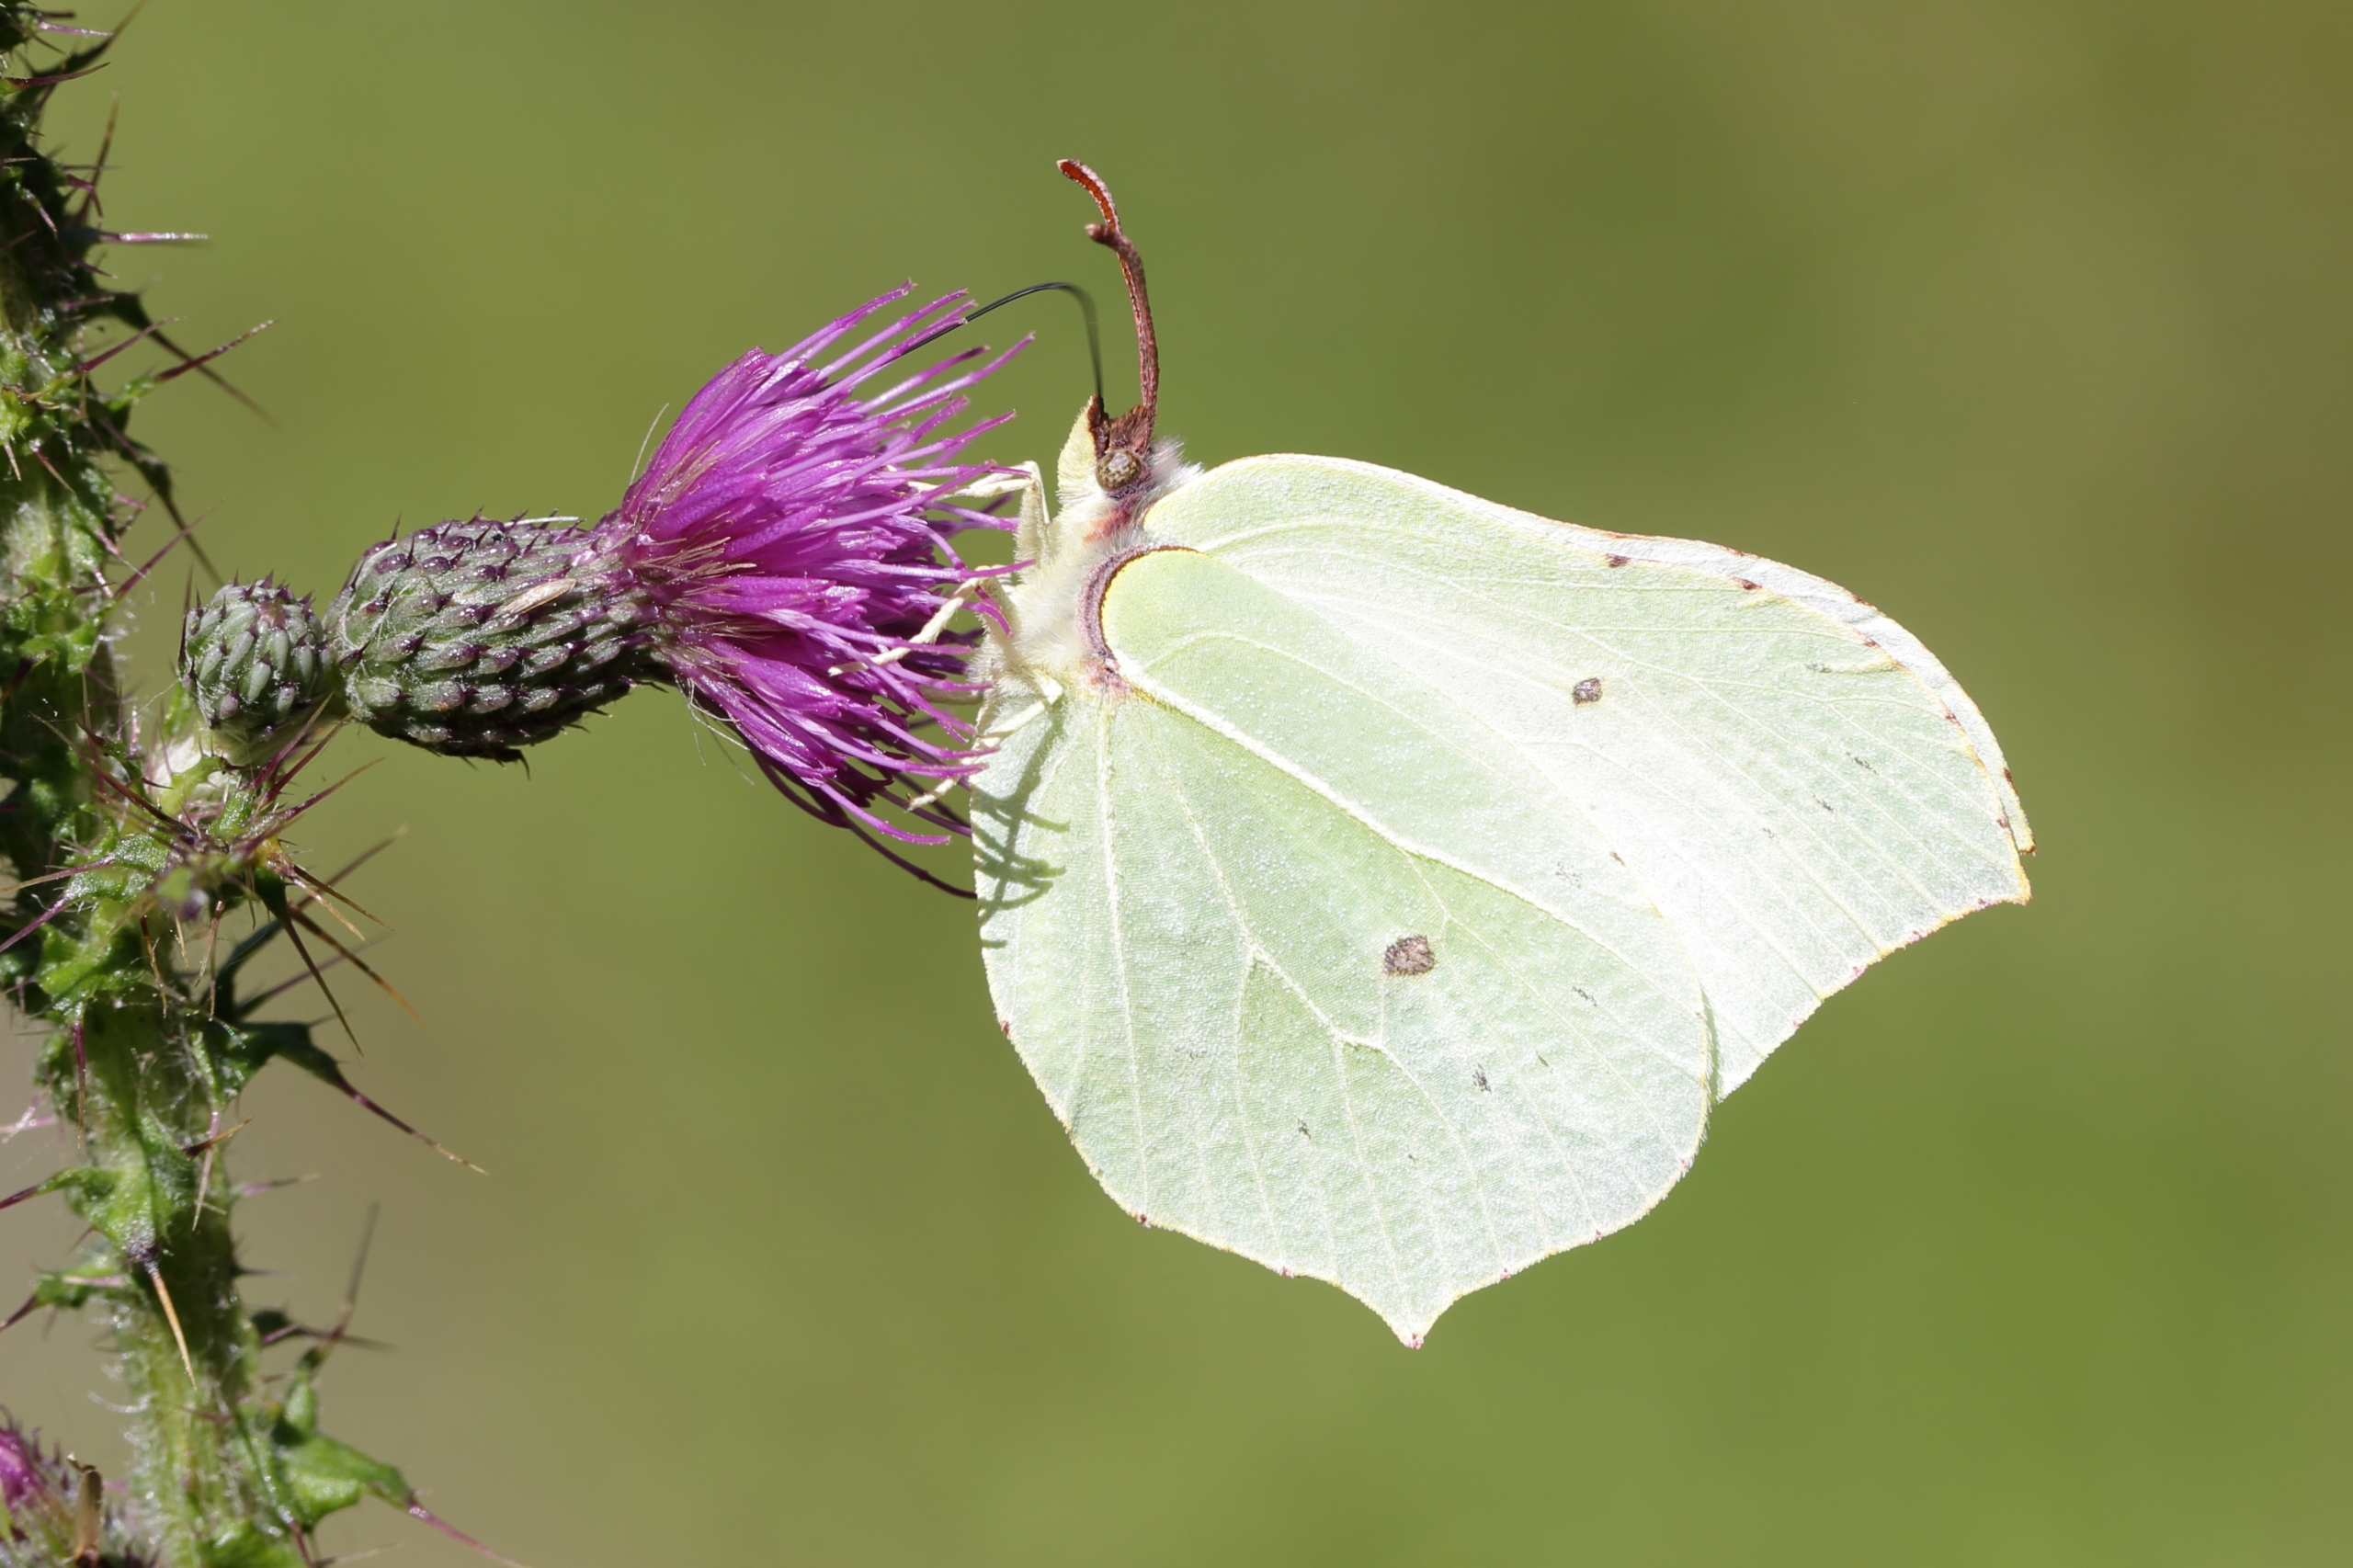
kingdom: Animalia
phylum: Arthropoda
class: Insecta
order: Lepidoptera
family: Pieridae
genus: Gonepteryx
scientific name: Gonepteryx rhamni
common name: Citronsommerfugl
